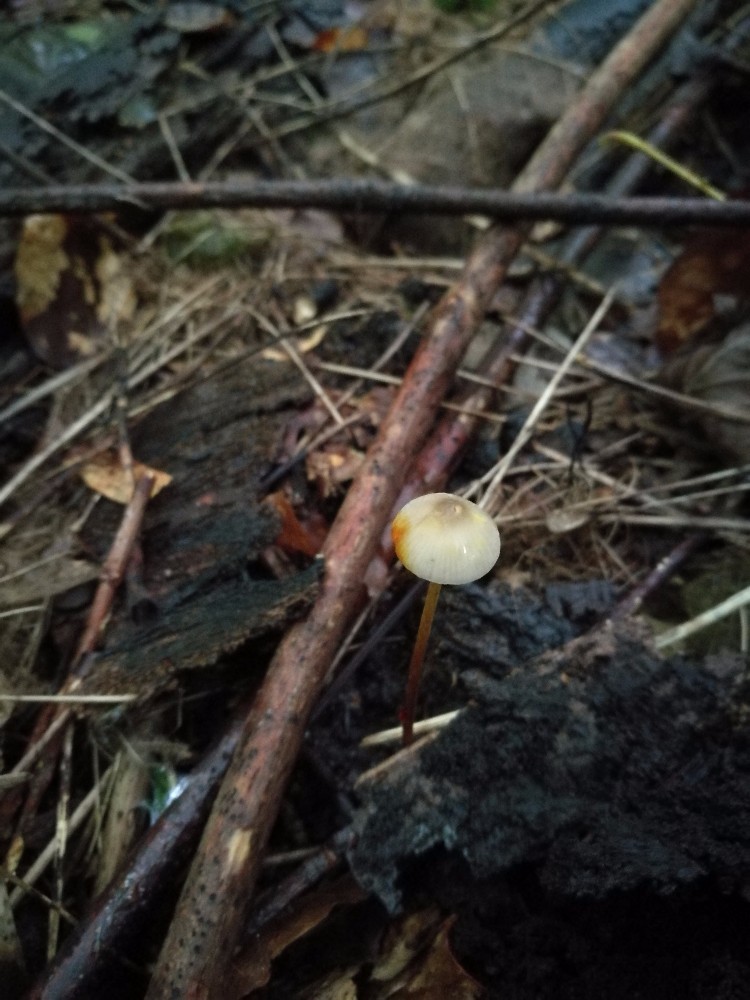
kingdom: Fungi
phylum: Basidiomycota
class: Agaricomycetes
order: Agaricales
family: Mycenaceae
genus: Mycena
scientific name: Mycena crocata
